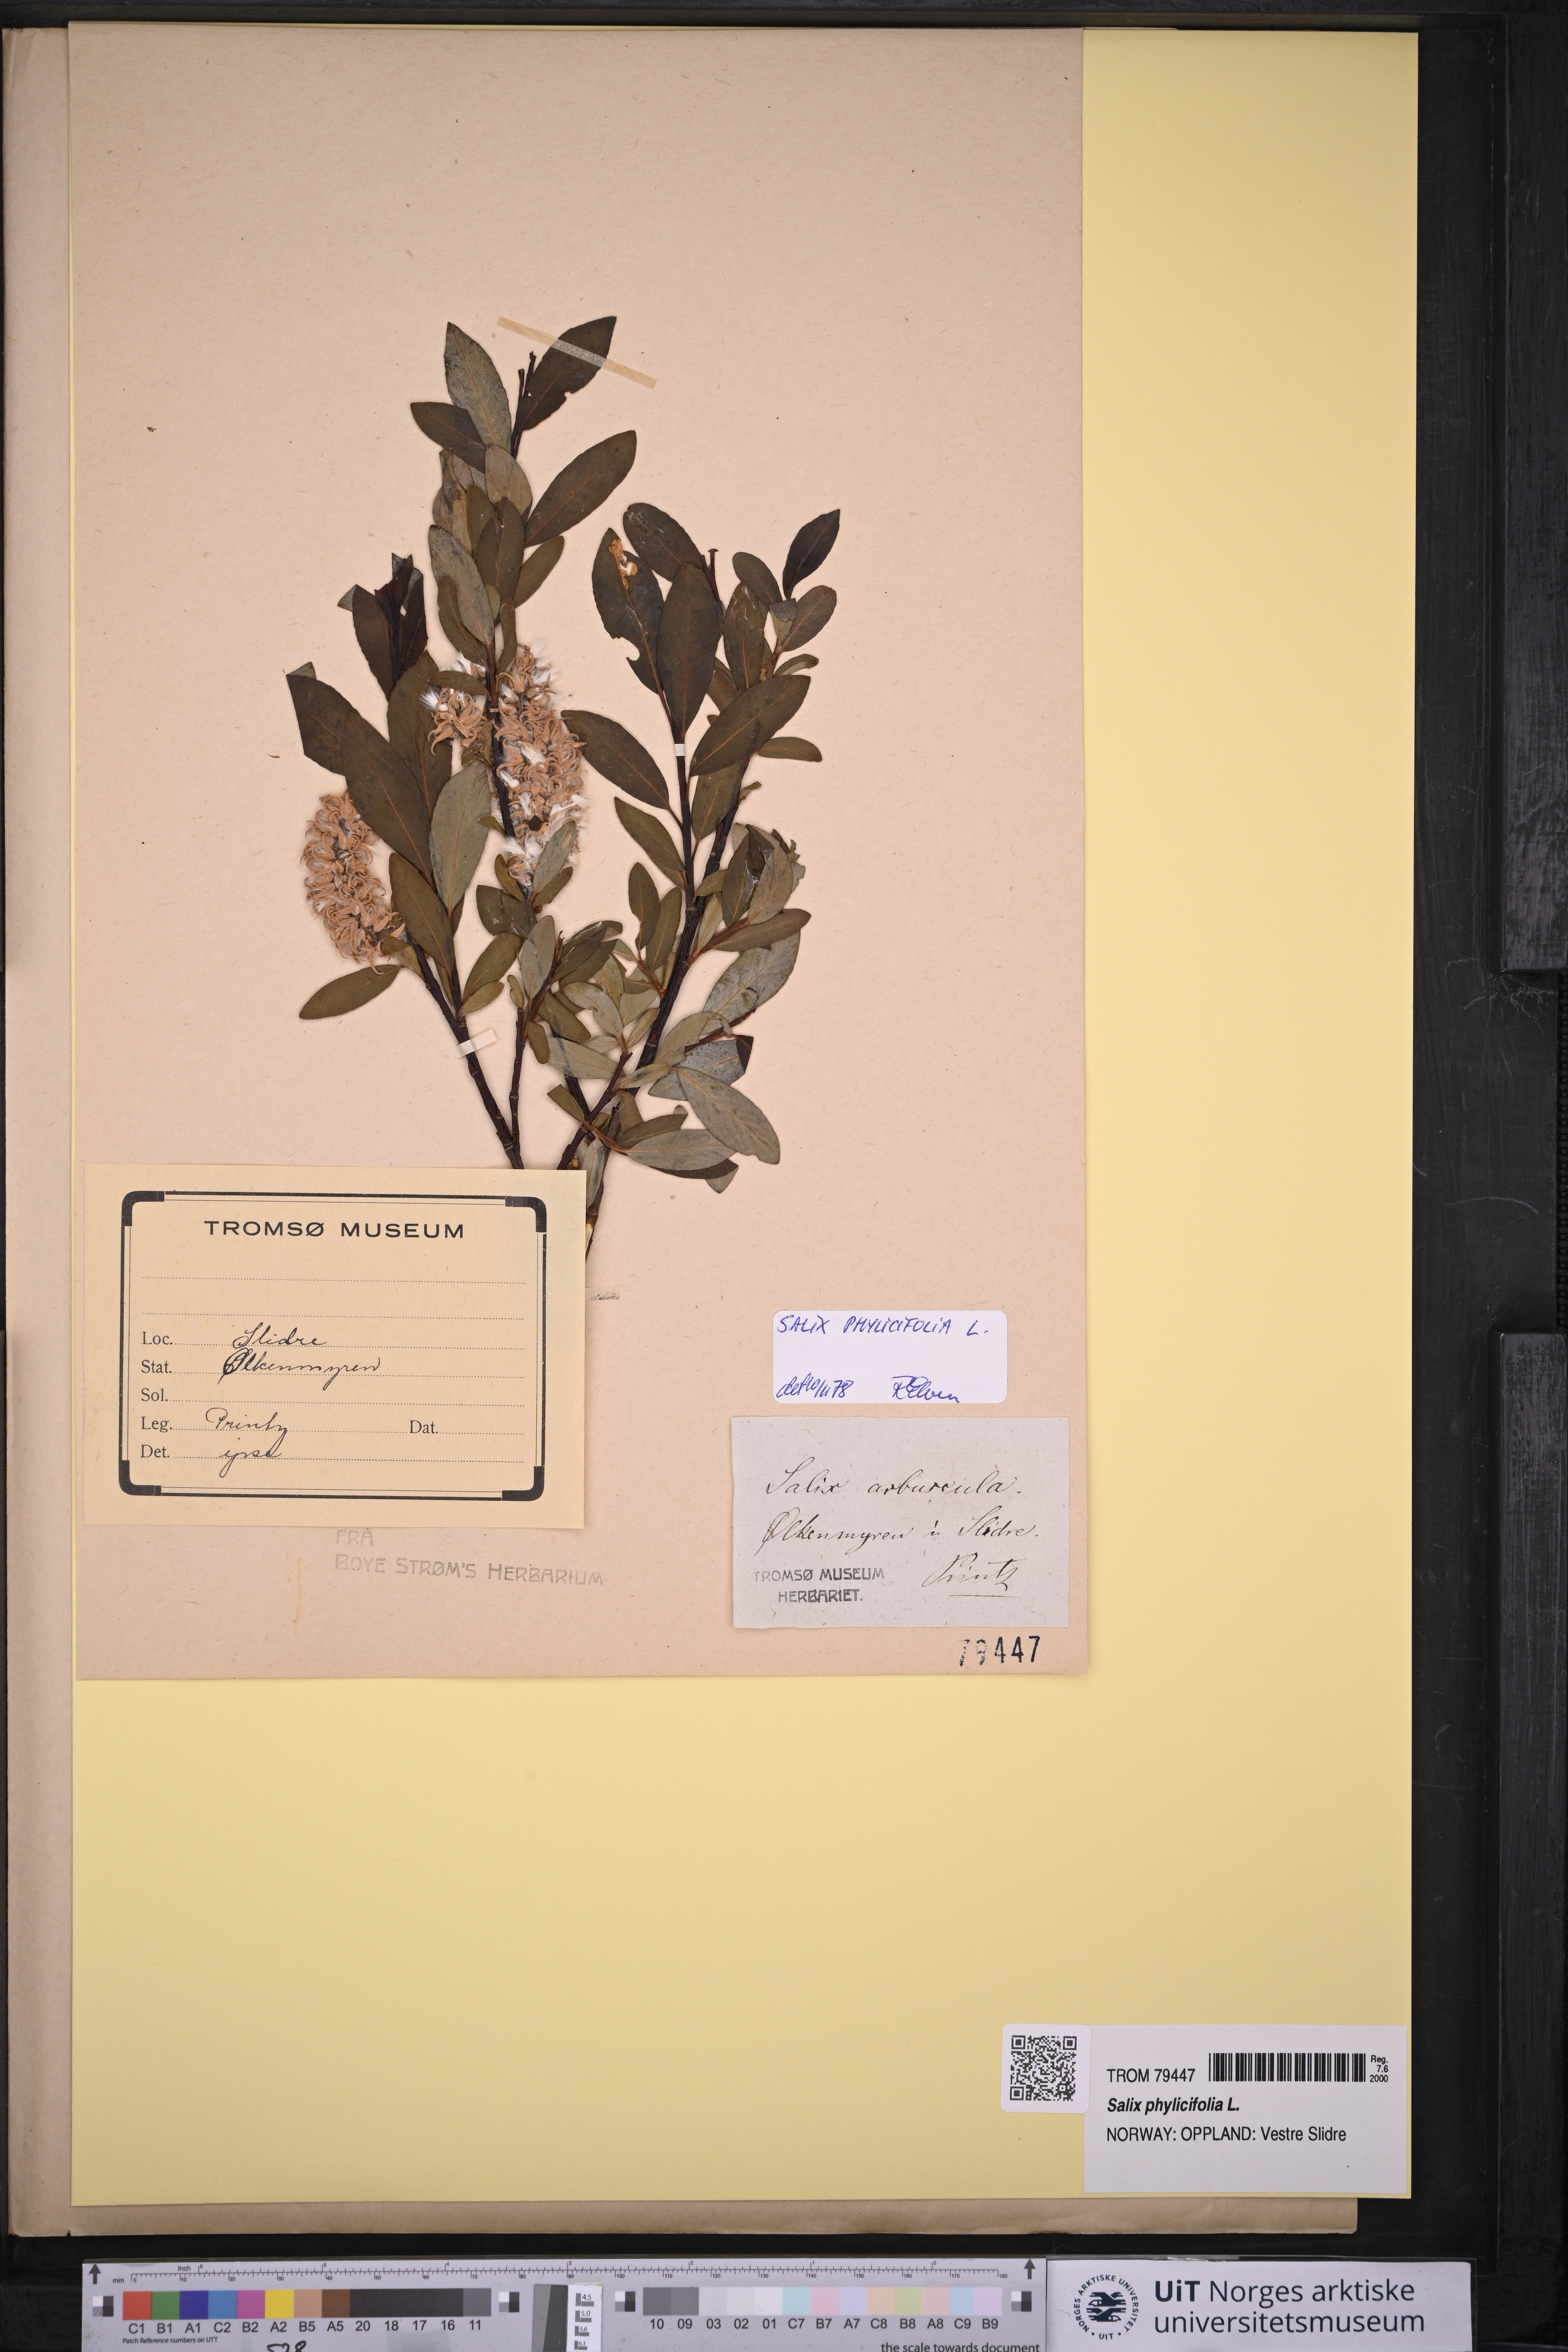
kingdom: Plantae
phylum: Tracheophyta
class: Magnoliopsida
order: Malpighiales
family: Salicaceae
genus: Salix
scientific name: Salix phylicifolia
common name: Tea-leaved willow
